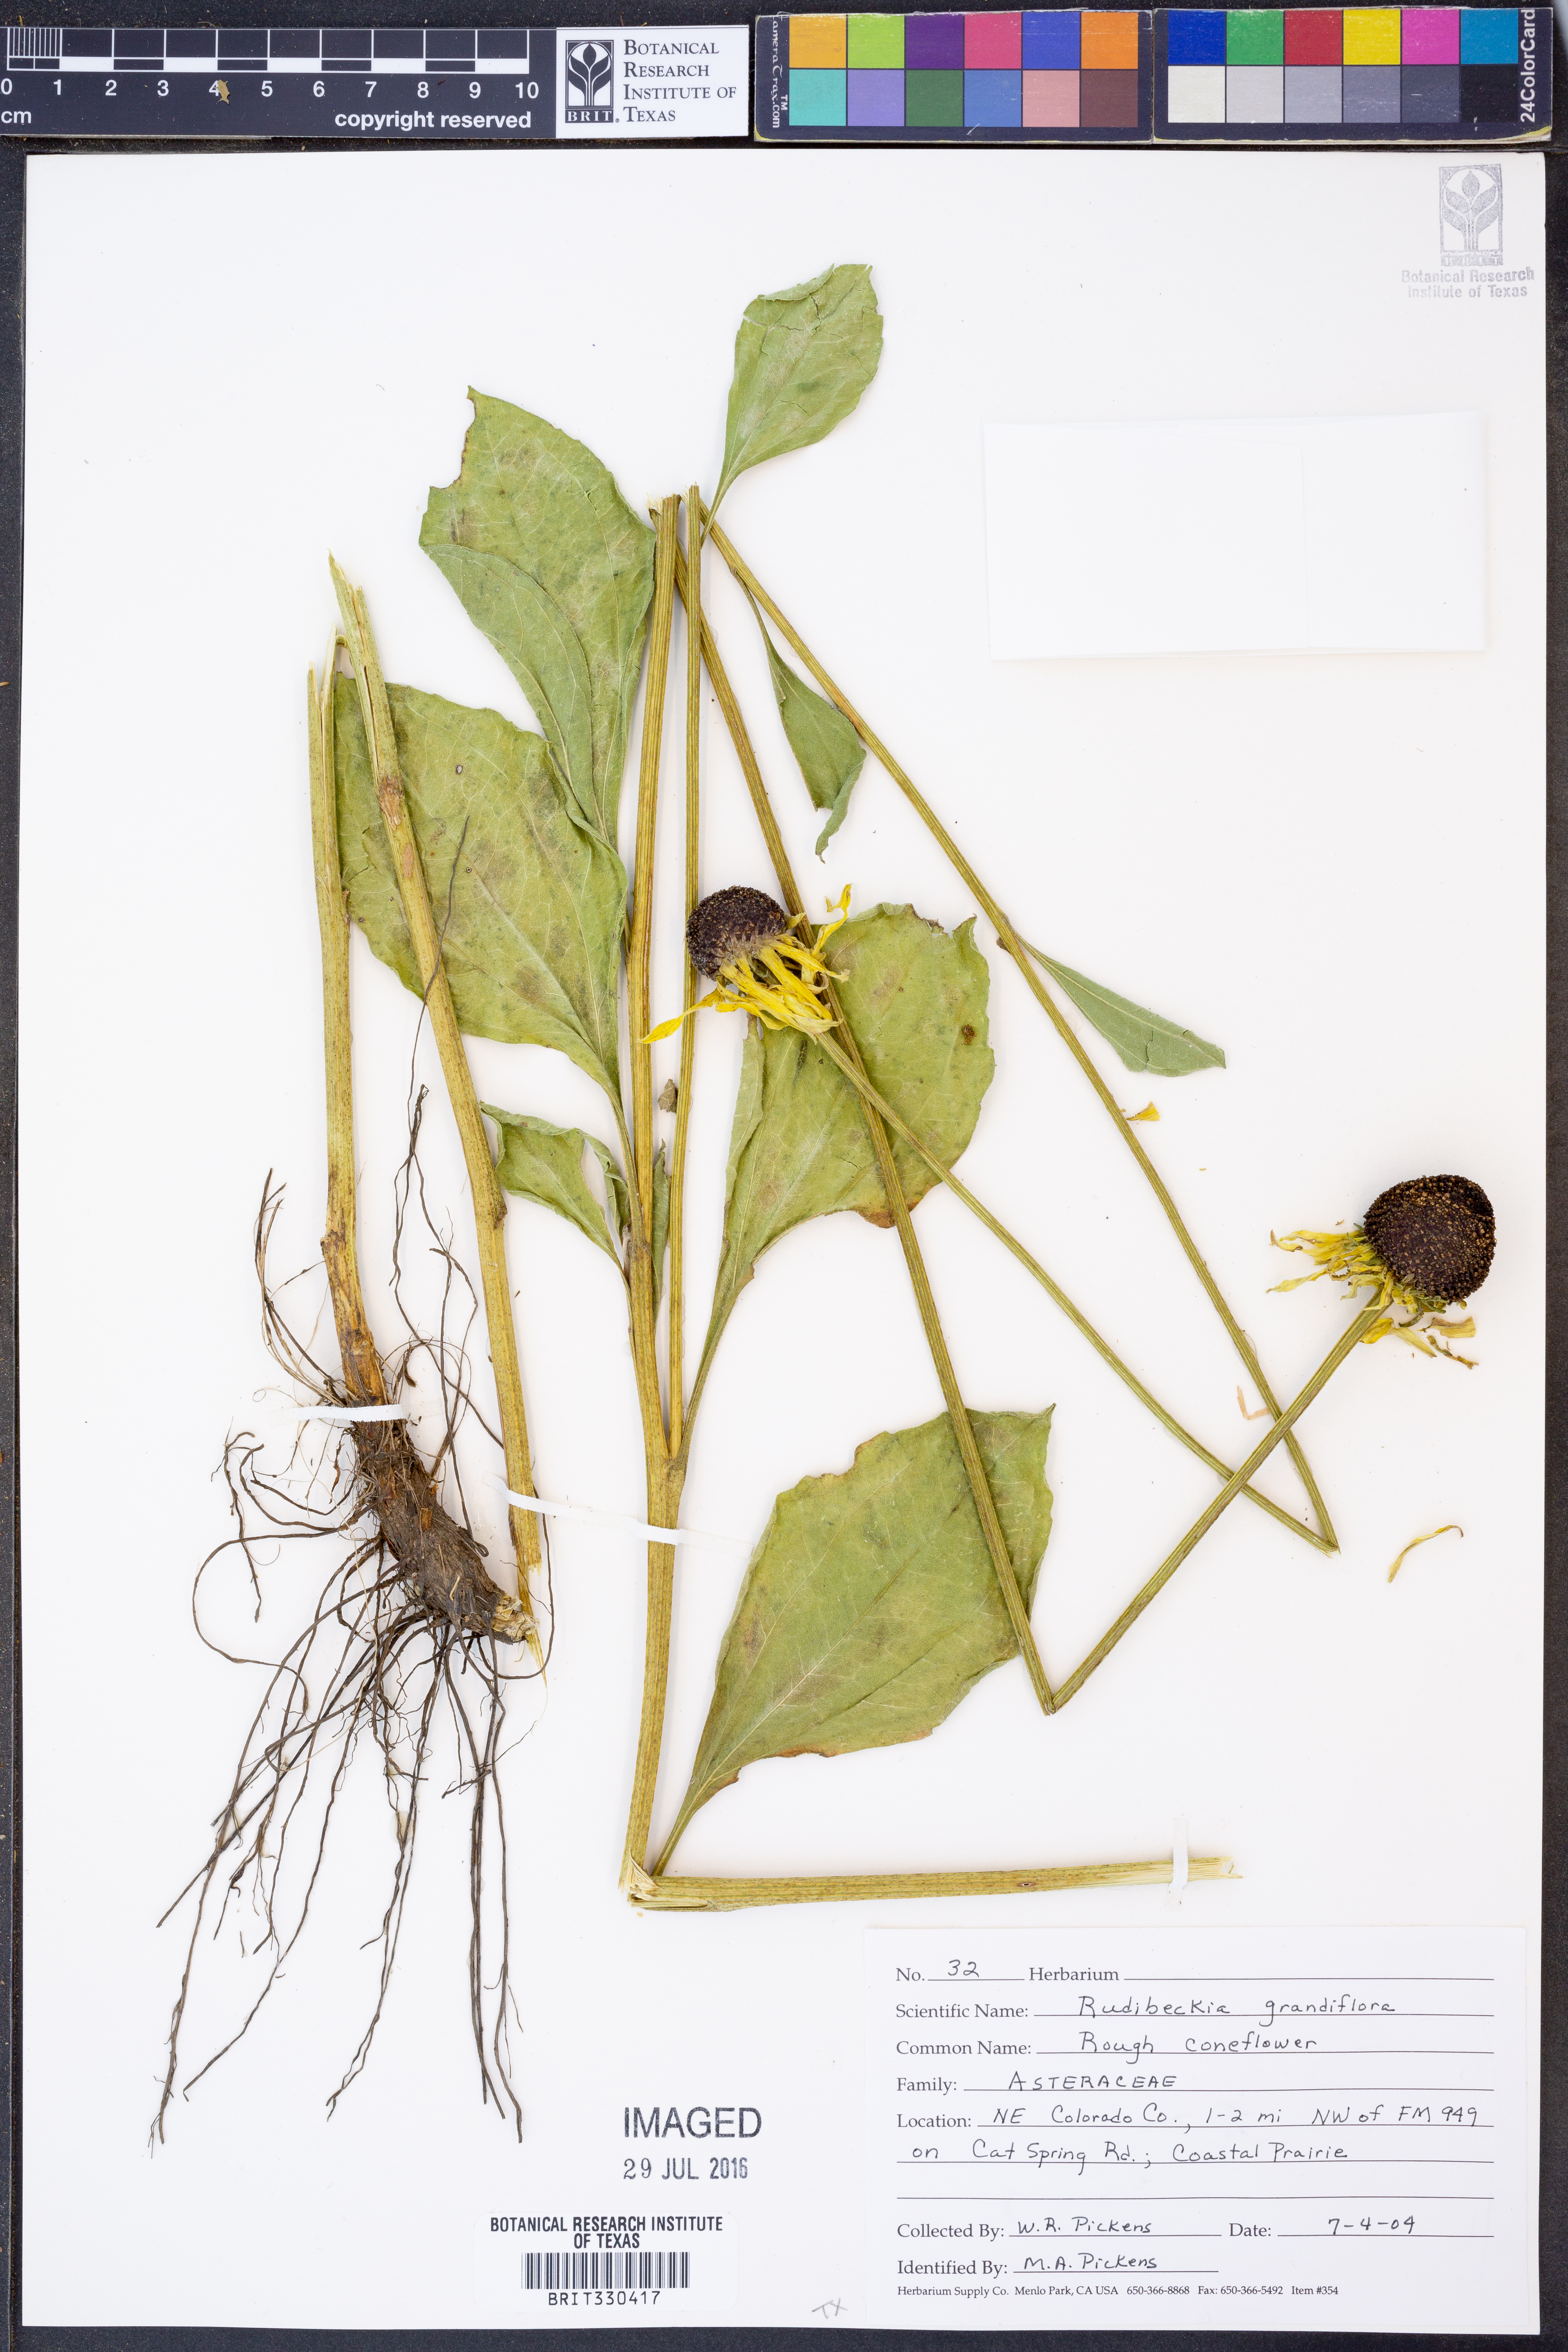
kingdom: Plantae
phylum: Tracheophyta
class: Magnoliopsida
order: Asterales
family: Asteraceae
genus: Rudbeckia
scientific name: Rudbeckia grandiflora
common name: Large-flowered coneflower
